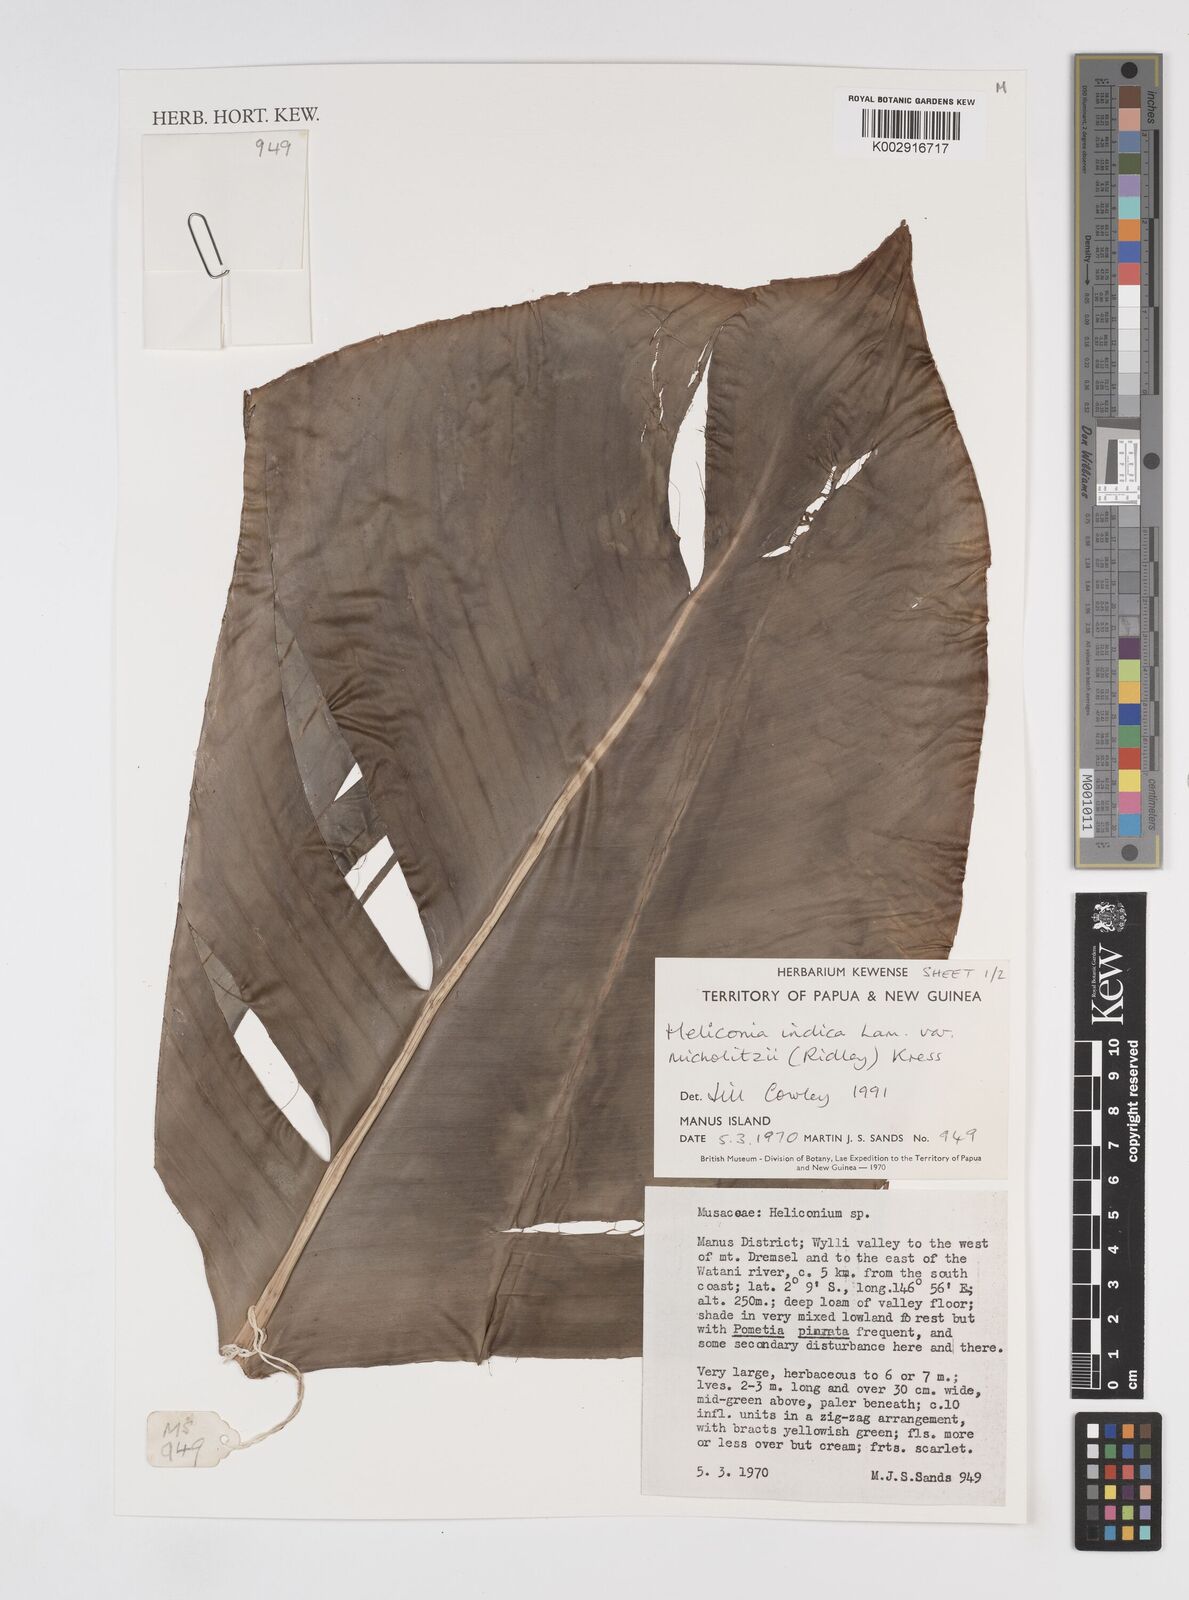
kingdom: Plantae
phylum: Tracheophyta
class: Liliopsida
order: Zingiberales
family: Heliconiaceae
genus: Heliconia
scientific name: Heliconia indica
